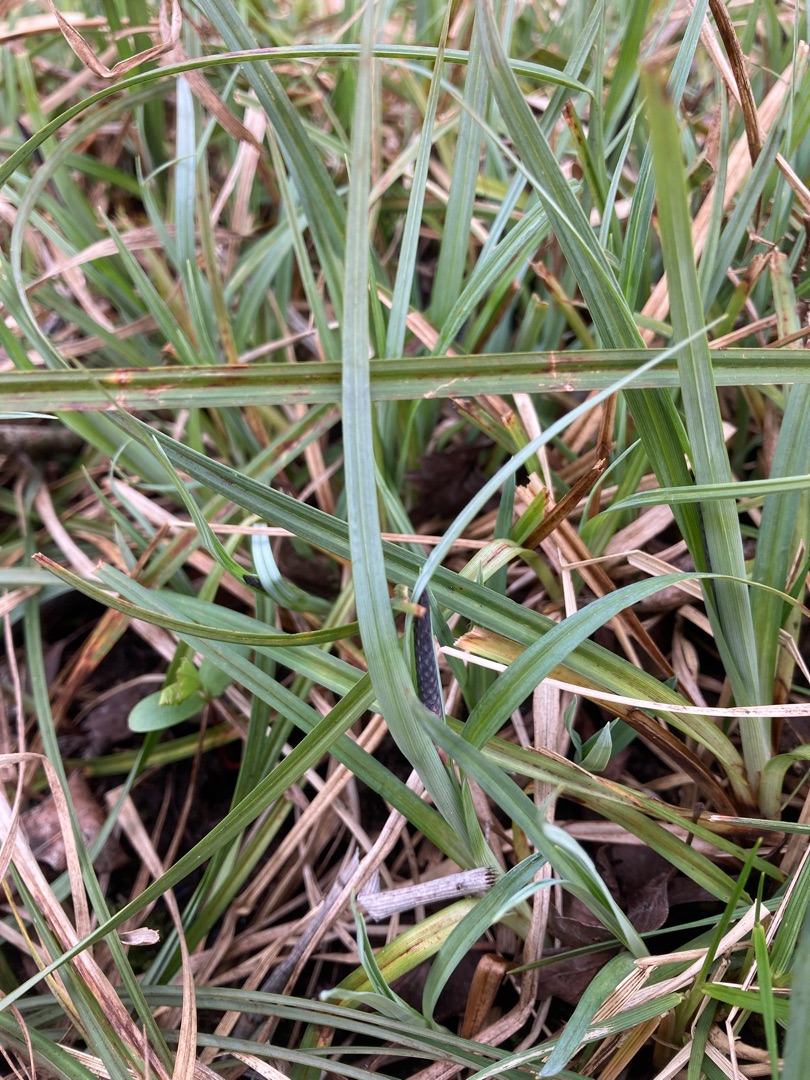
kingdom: Plantae
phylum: Tracheophyta
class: Liliopsida
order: Poales
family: Cyperaceae
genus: Carex
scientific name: Carex flacca
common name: Blågrøn star
